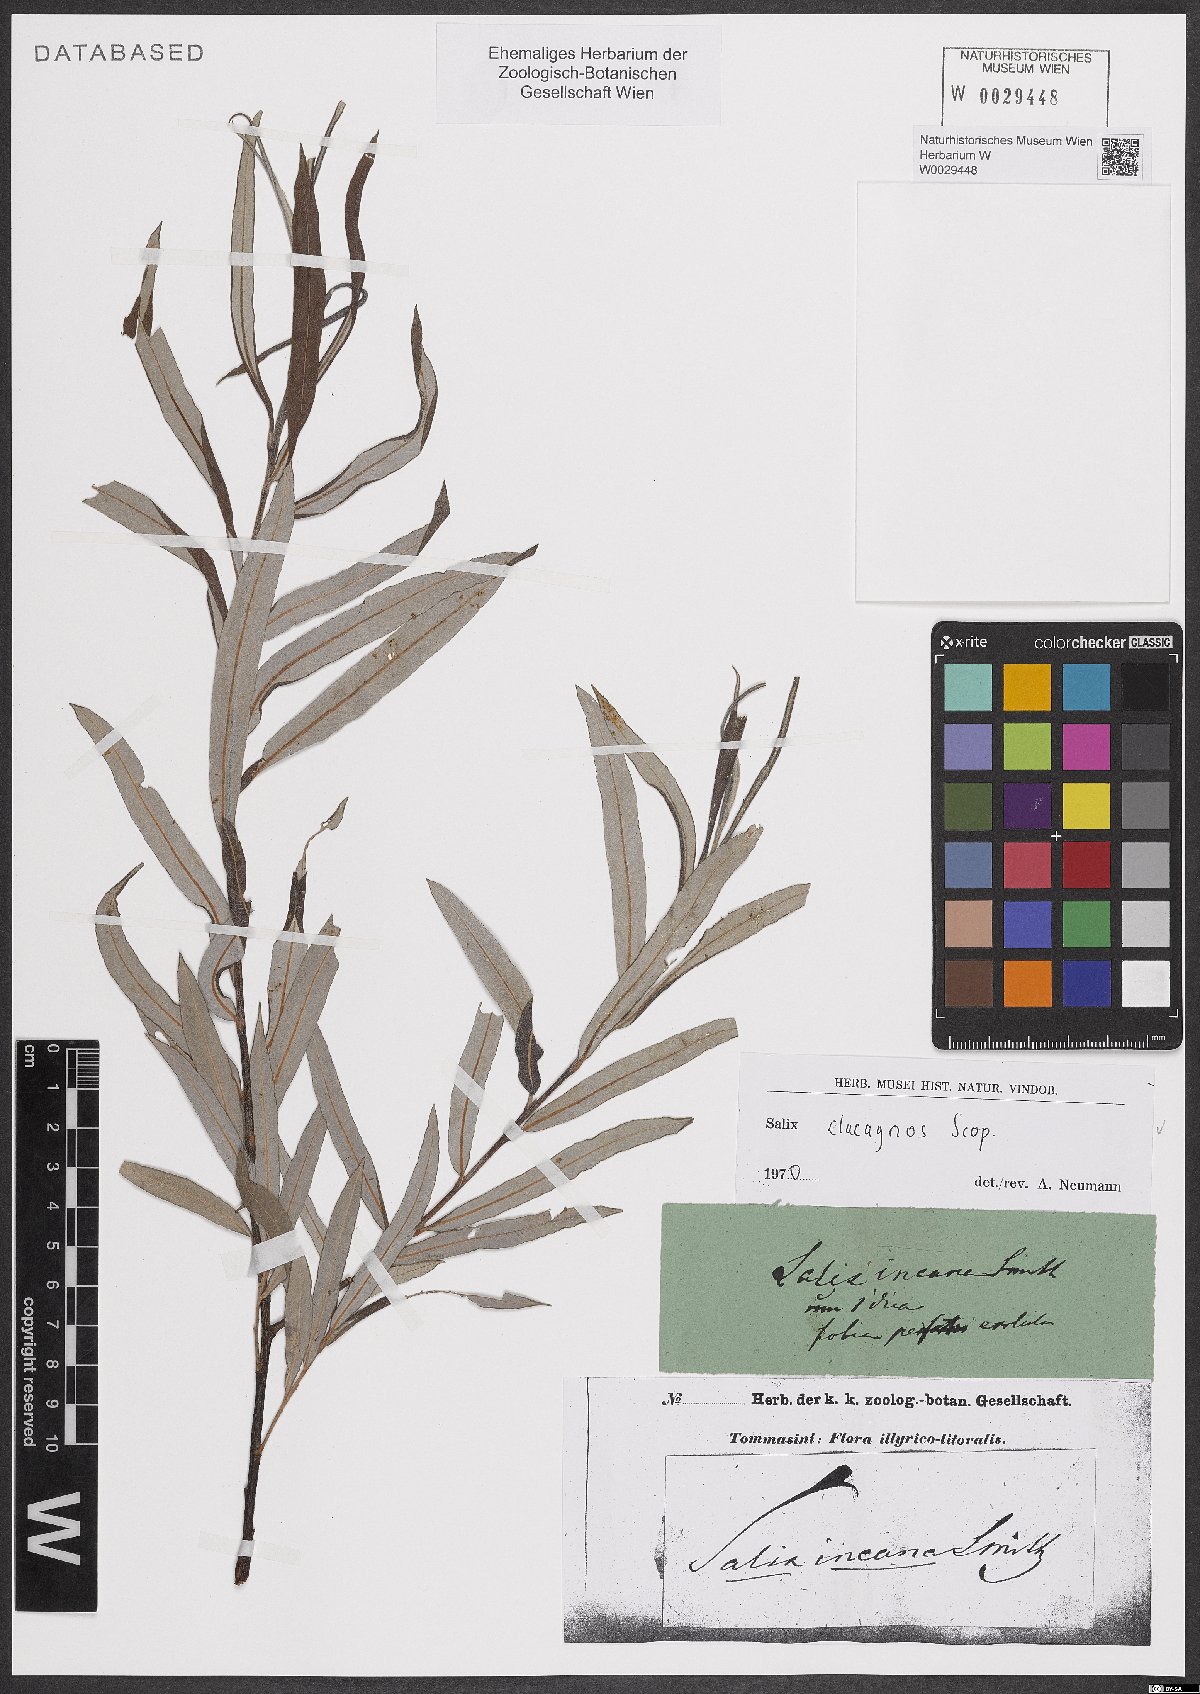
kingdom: Plantae
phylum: Tracheophyta
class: Magnoliopsida
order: Malpighiales
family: Salicaceae
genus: Salix
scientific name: Salix eleagnos
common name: Elaeagnus willow
